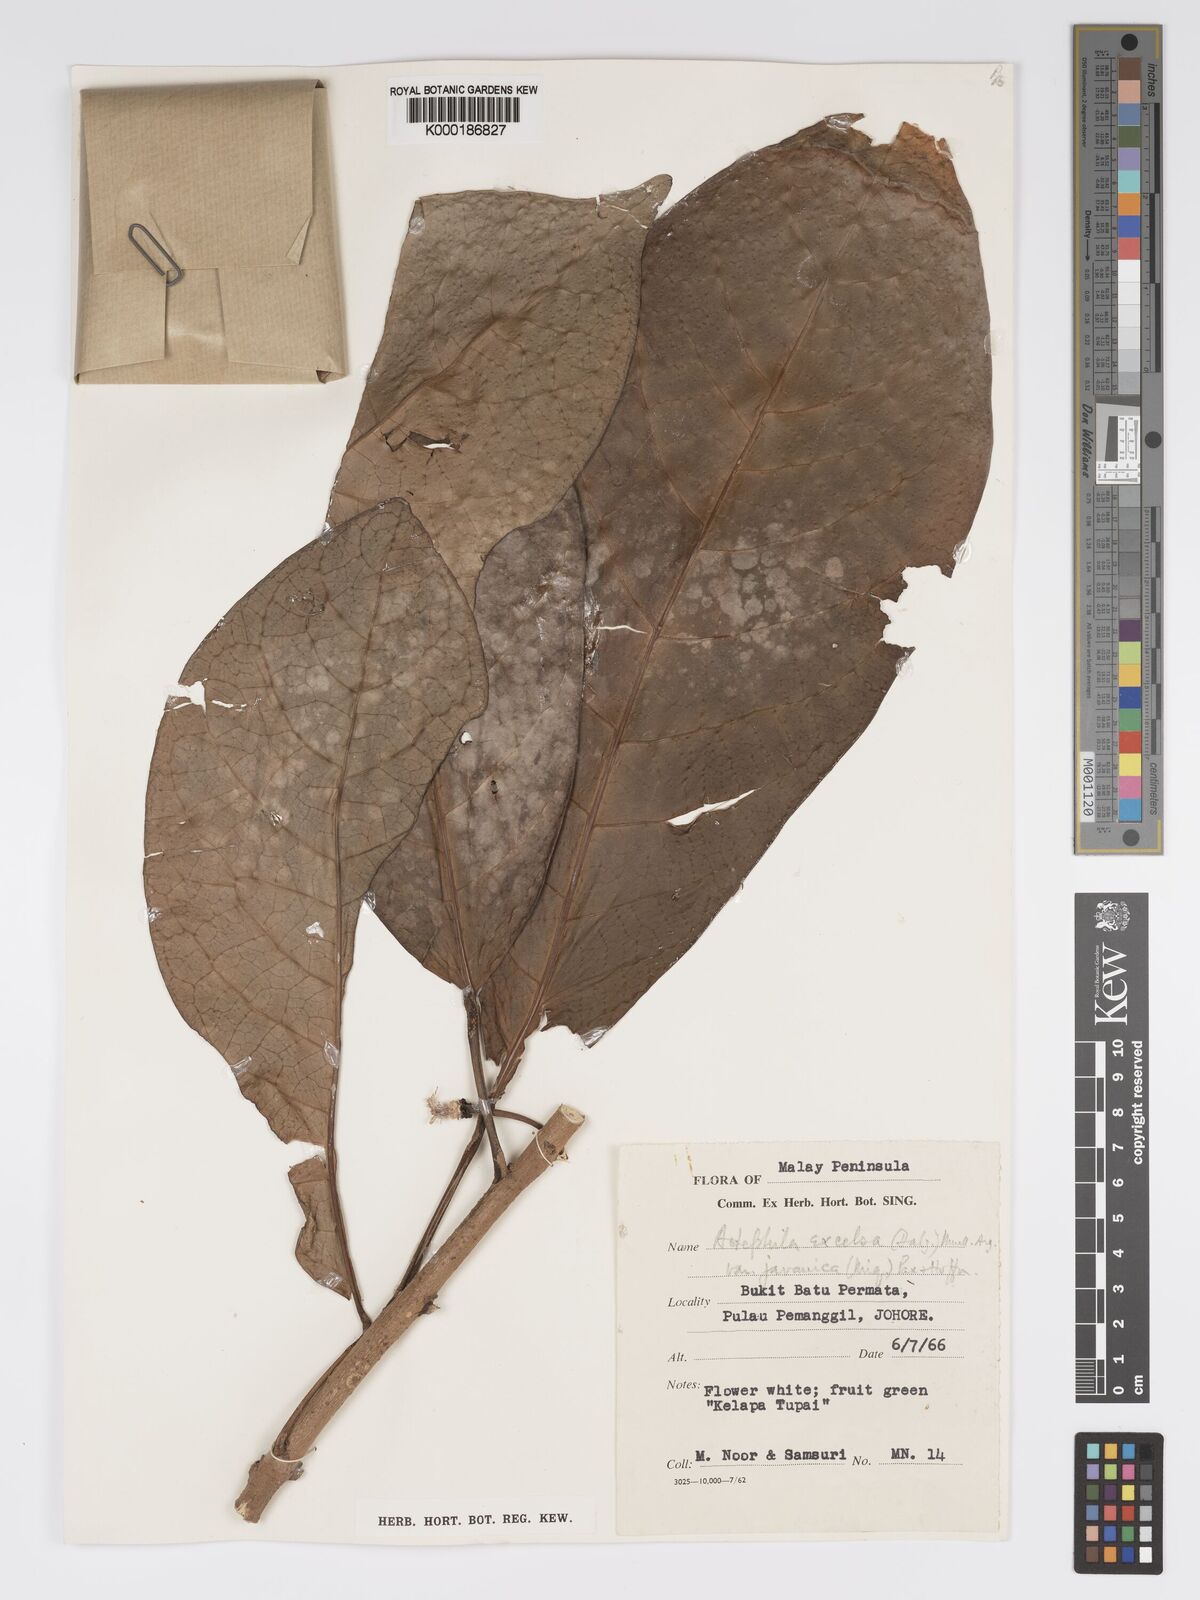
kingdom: Plantae
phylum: Tracheophyta
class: Magnoliopsida
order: Malpighiales
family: Phyllanthaceae
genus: Actephila
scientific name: Actephila
